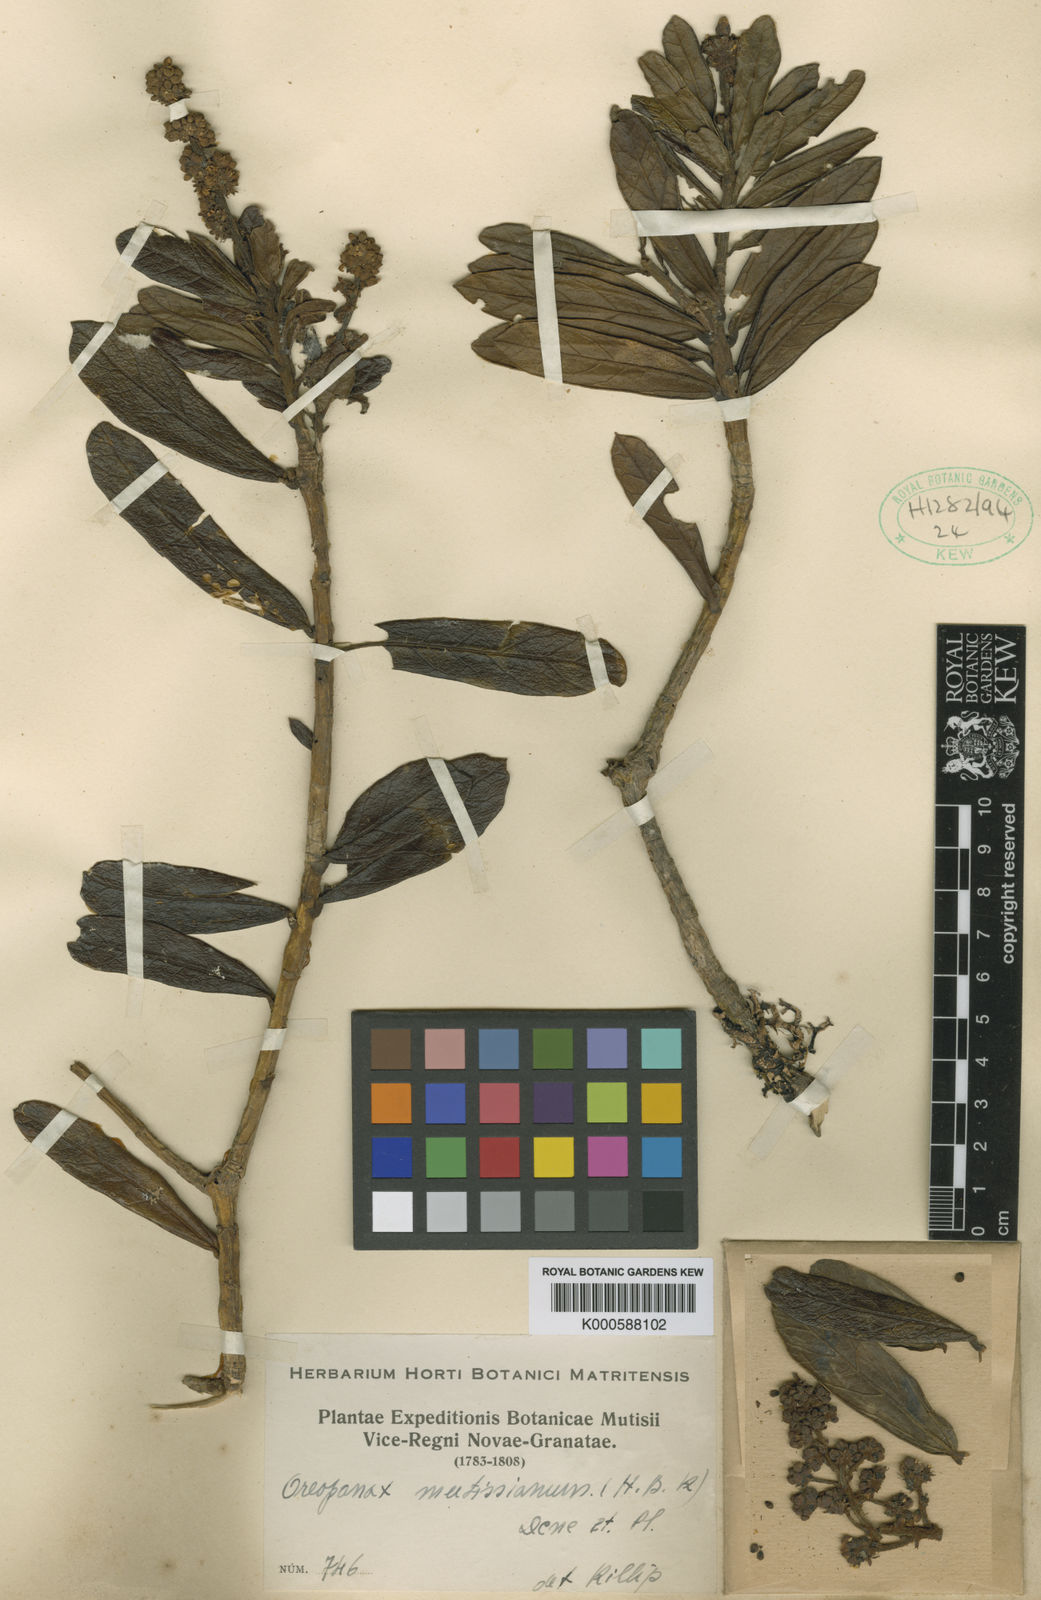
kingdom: Plantae
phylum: Tracheophyta
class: Magnoliopsida
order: Apiales
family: Araliaceae
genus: Oreopanax
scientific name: Oreopanax mutisianus
